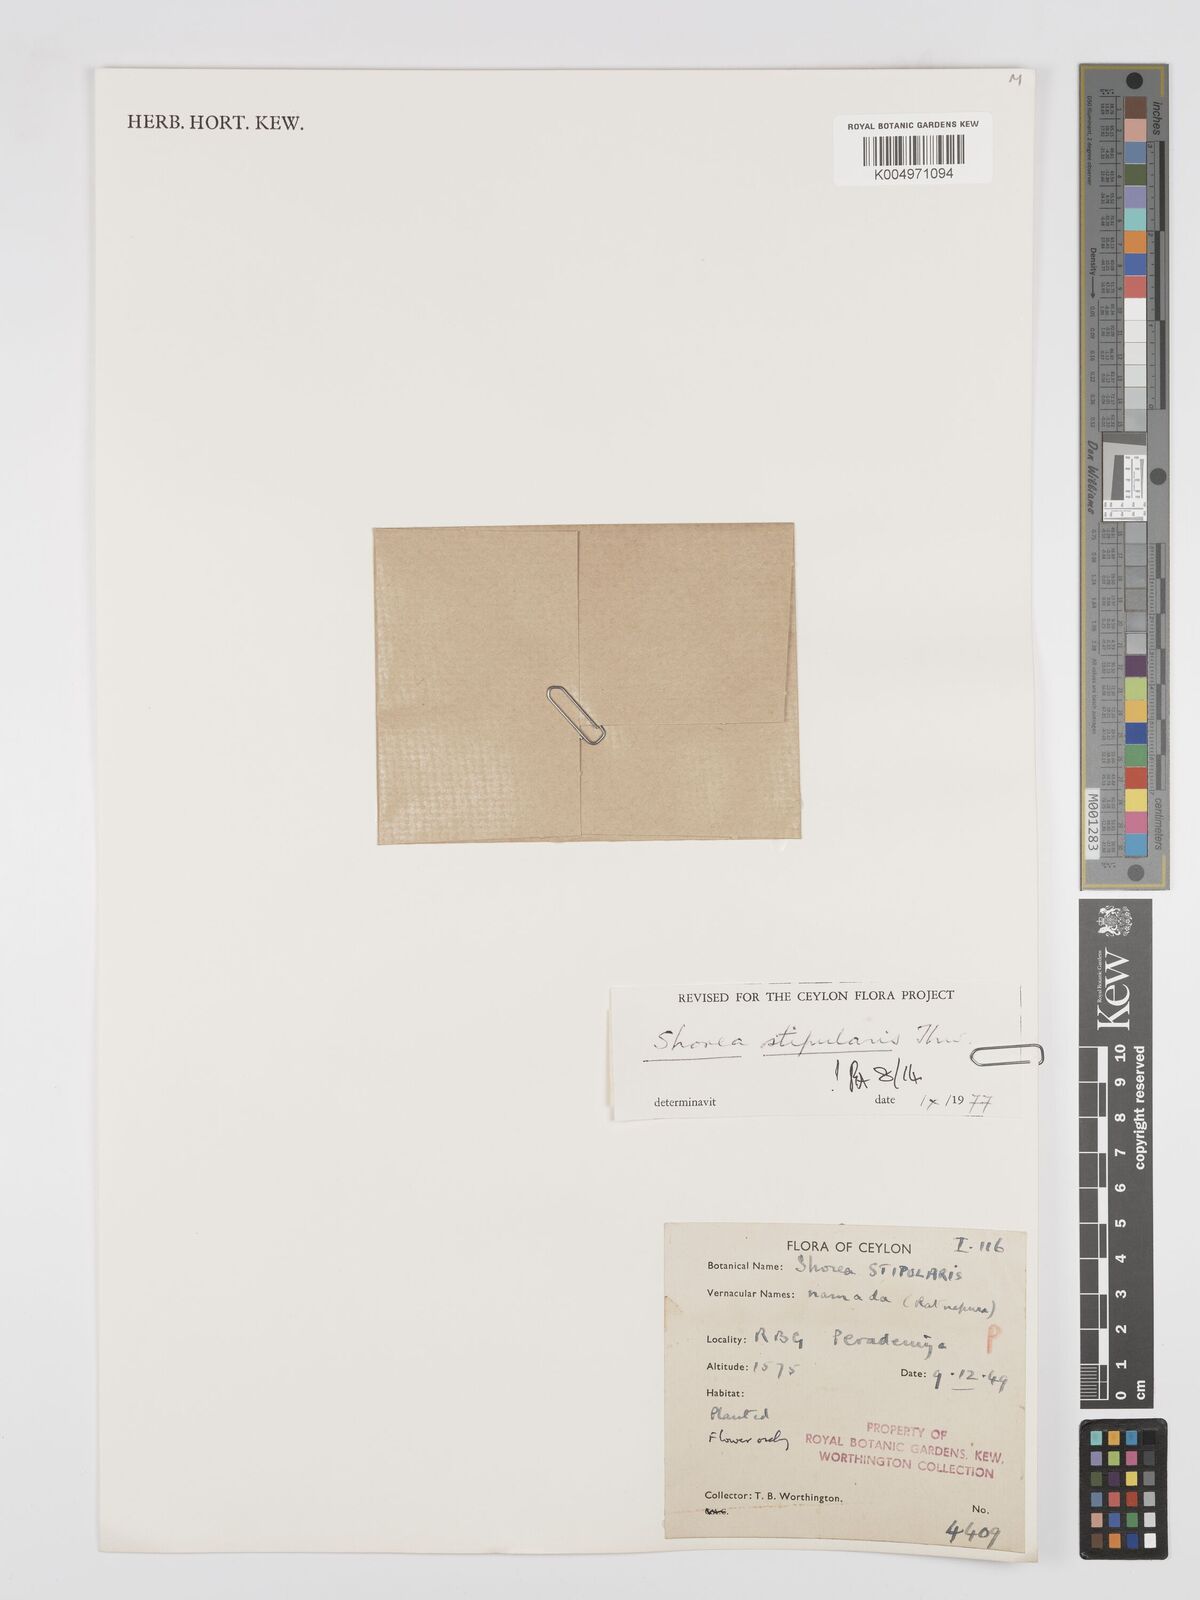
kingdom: Plantae
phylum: Tracheophyta
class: Magnoliopsida
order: Malvales
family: Dipterocarpaceae
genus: Anthoshorea
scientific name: Anthoshorea stipularis
